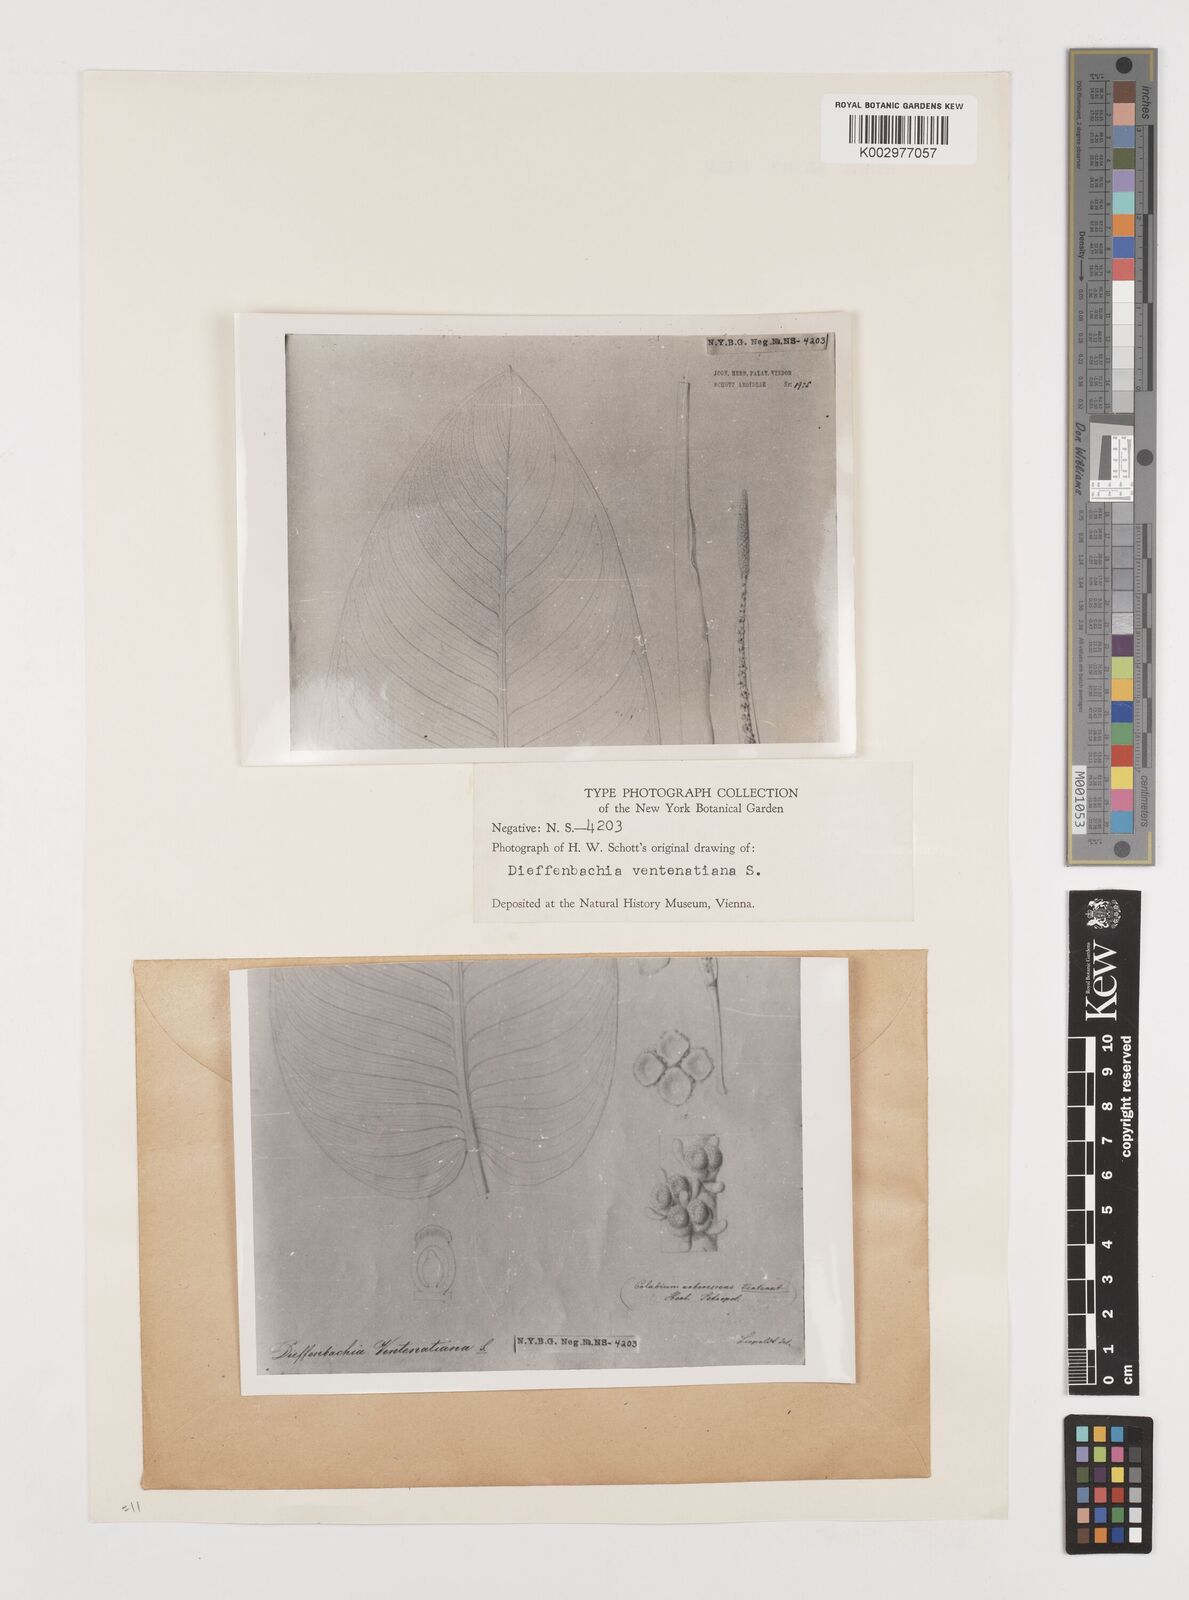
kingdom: Plantae
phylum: Tracheophyta
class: Liliopsida
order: Alismatales
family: Araceae
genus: Dieffenbachia
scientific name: Dieffenbachia seguine
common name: Dumbcane
